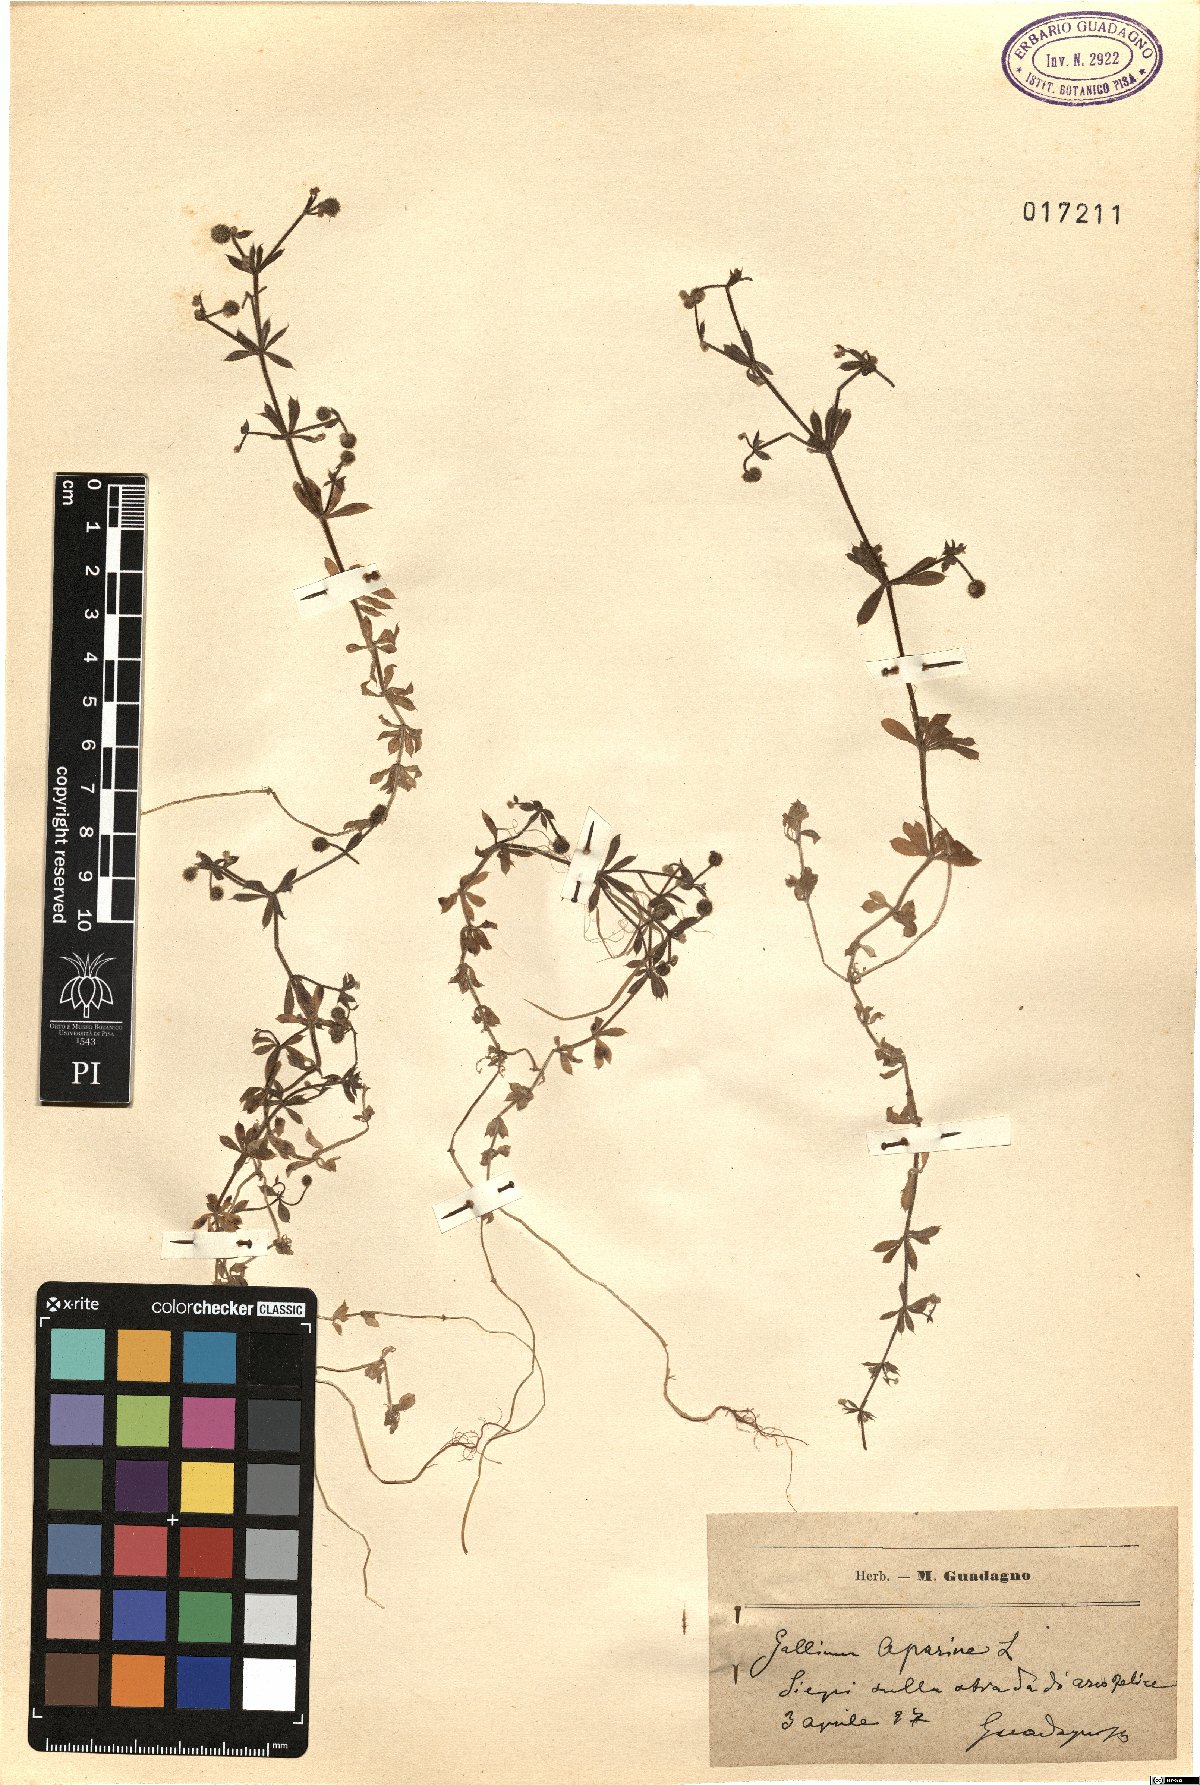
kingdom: Plantae
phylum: Tracheophyta
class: Magnoliopsida
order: Gentianales
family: Rubiaceae
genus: Galium
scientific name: Galium aparine
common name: Cleavers
